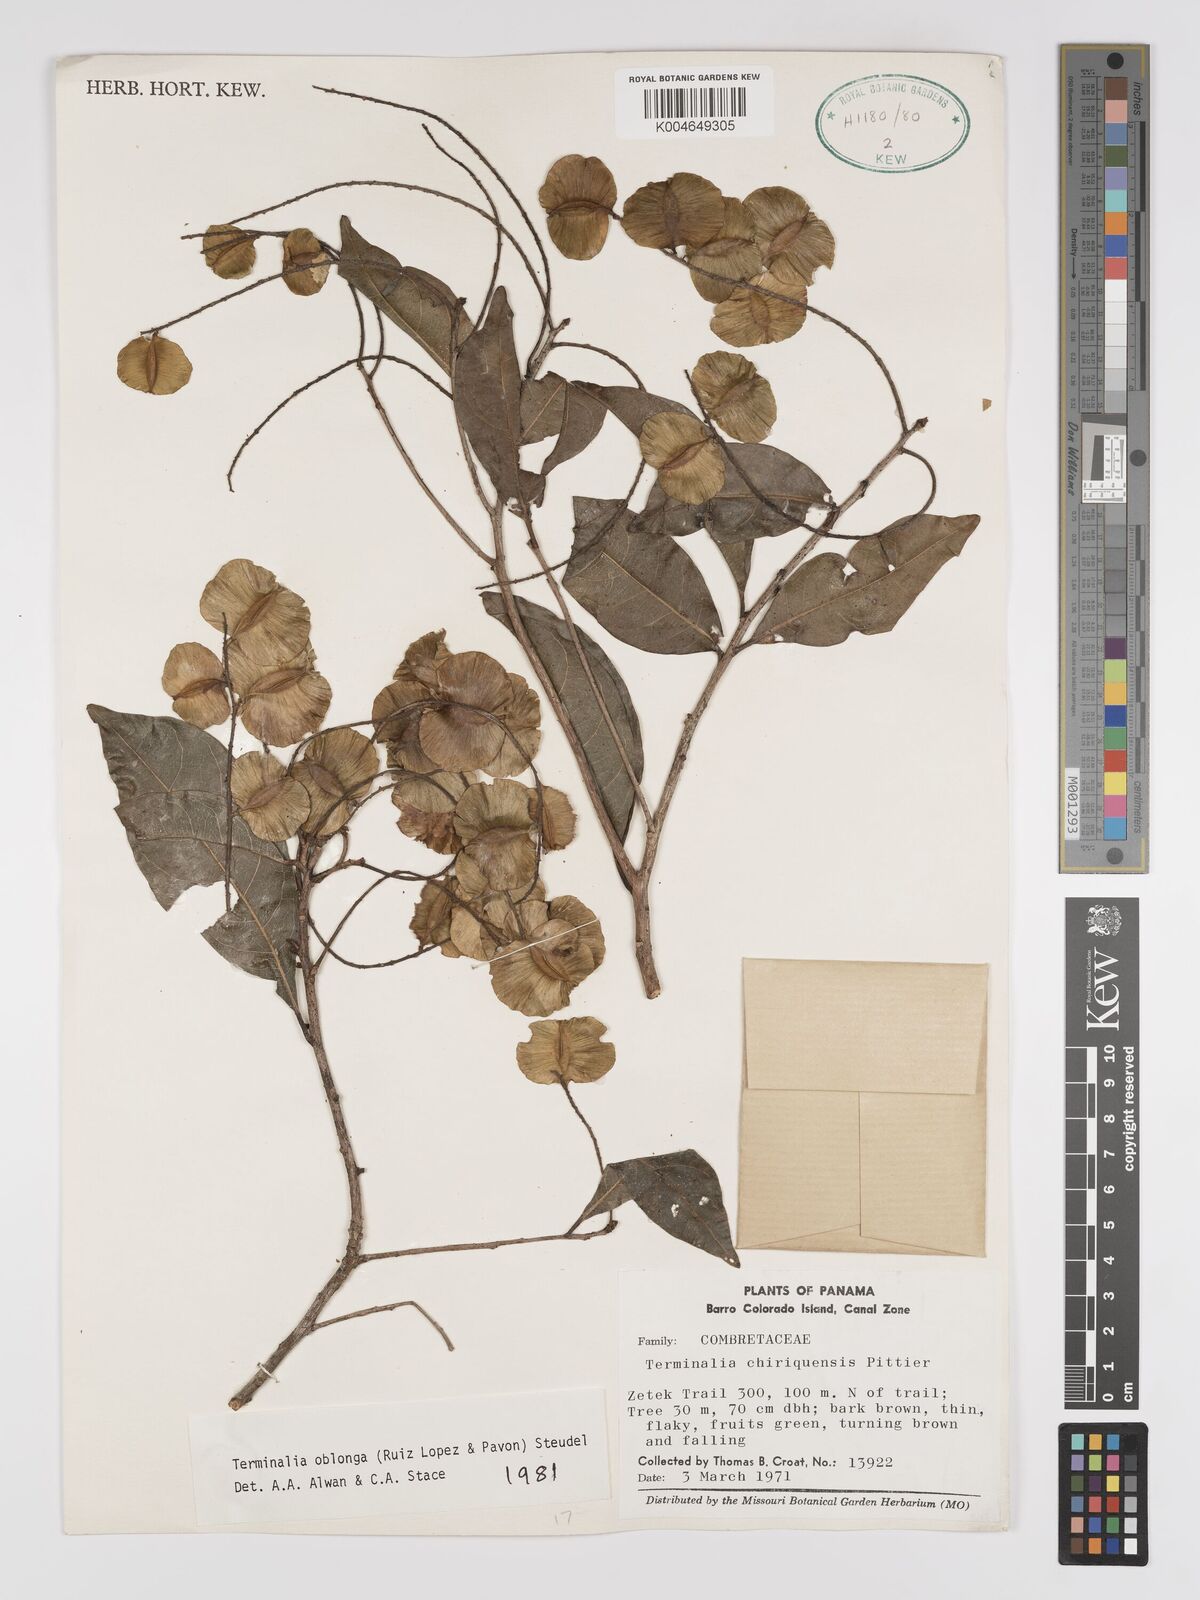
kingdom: Plantae
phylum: Tracheophyta
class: Magnoliopsida
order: Myrtales
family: Combretaceae
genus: Terminalia
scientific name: Terminalia oblonga
